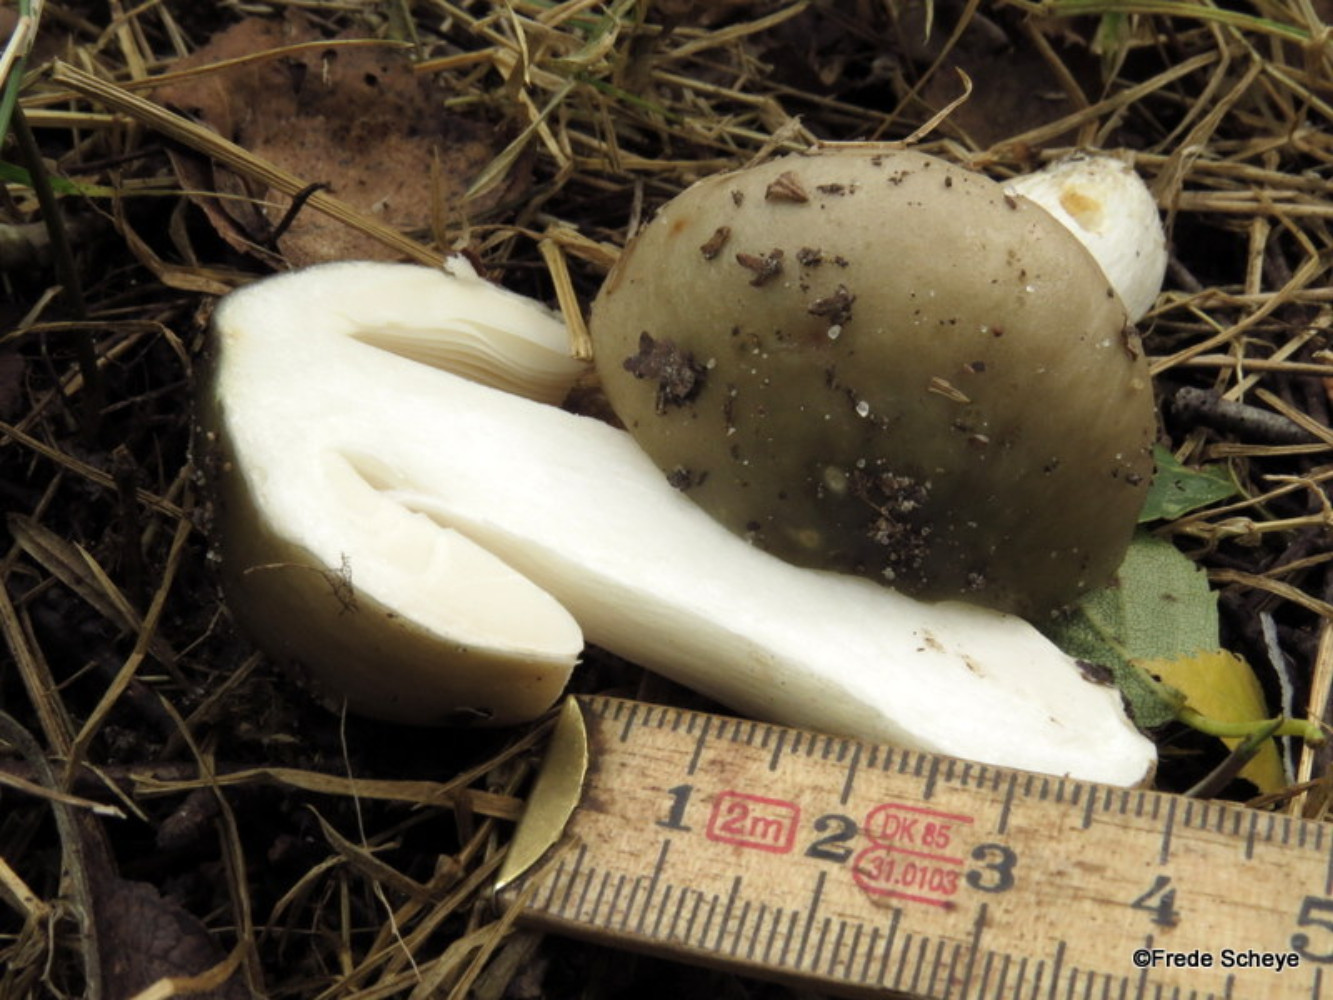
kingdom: Fungi
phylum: Basidiomycota
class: Agaricomycetes
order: Russulales
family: Russulaceae
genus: Russula
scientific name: Russula cyanoxantha
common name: broget skørhat
